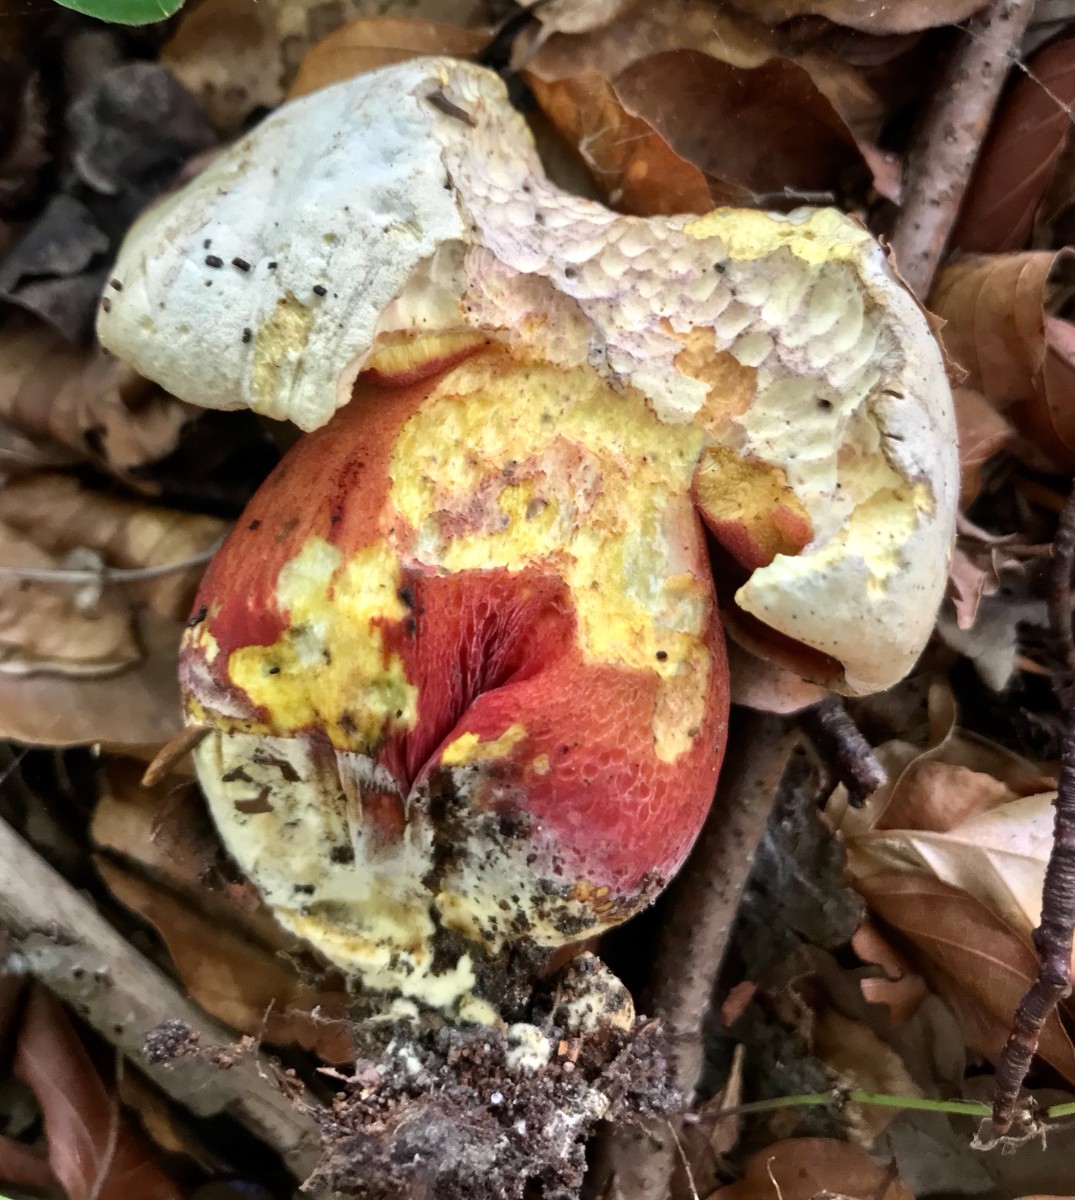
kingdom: Fungi
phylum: Basidiomycota
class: Agaricomycetes
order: Boletales
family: Boletaceae
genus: Rubroboletus
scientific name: Rubroboletus satanas
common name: Satans rørhat
